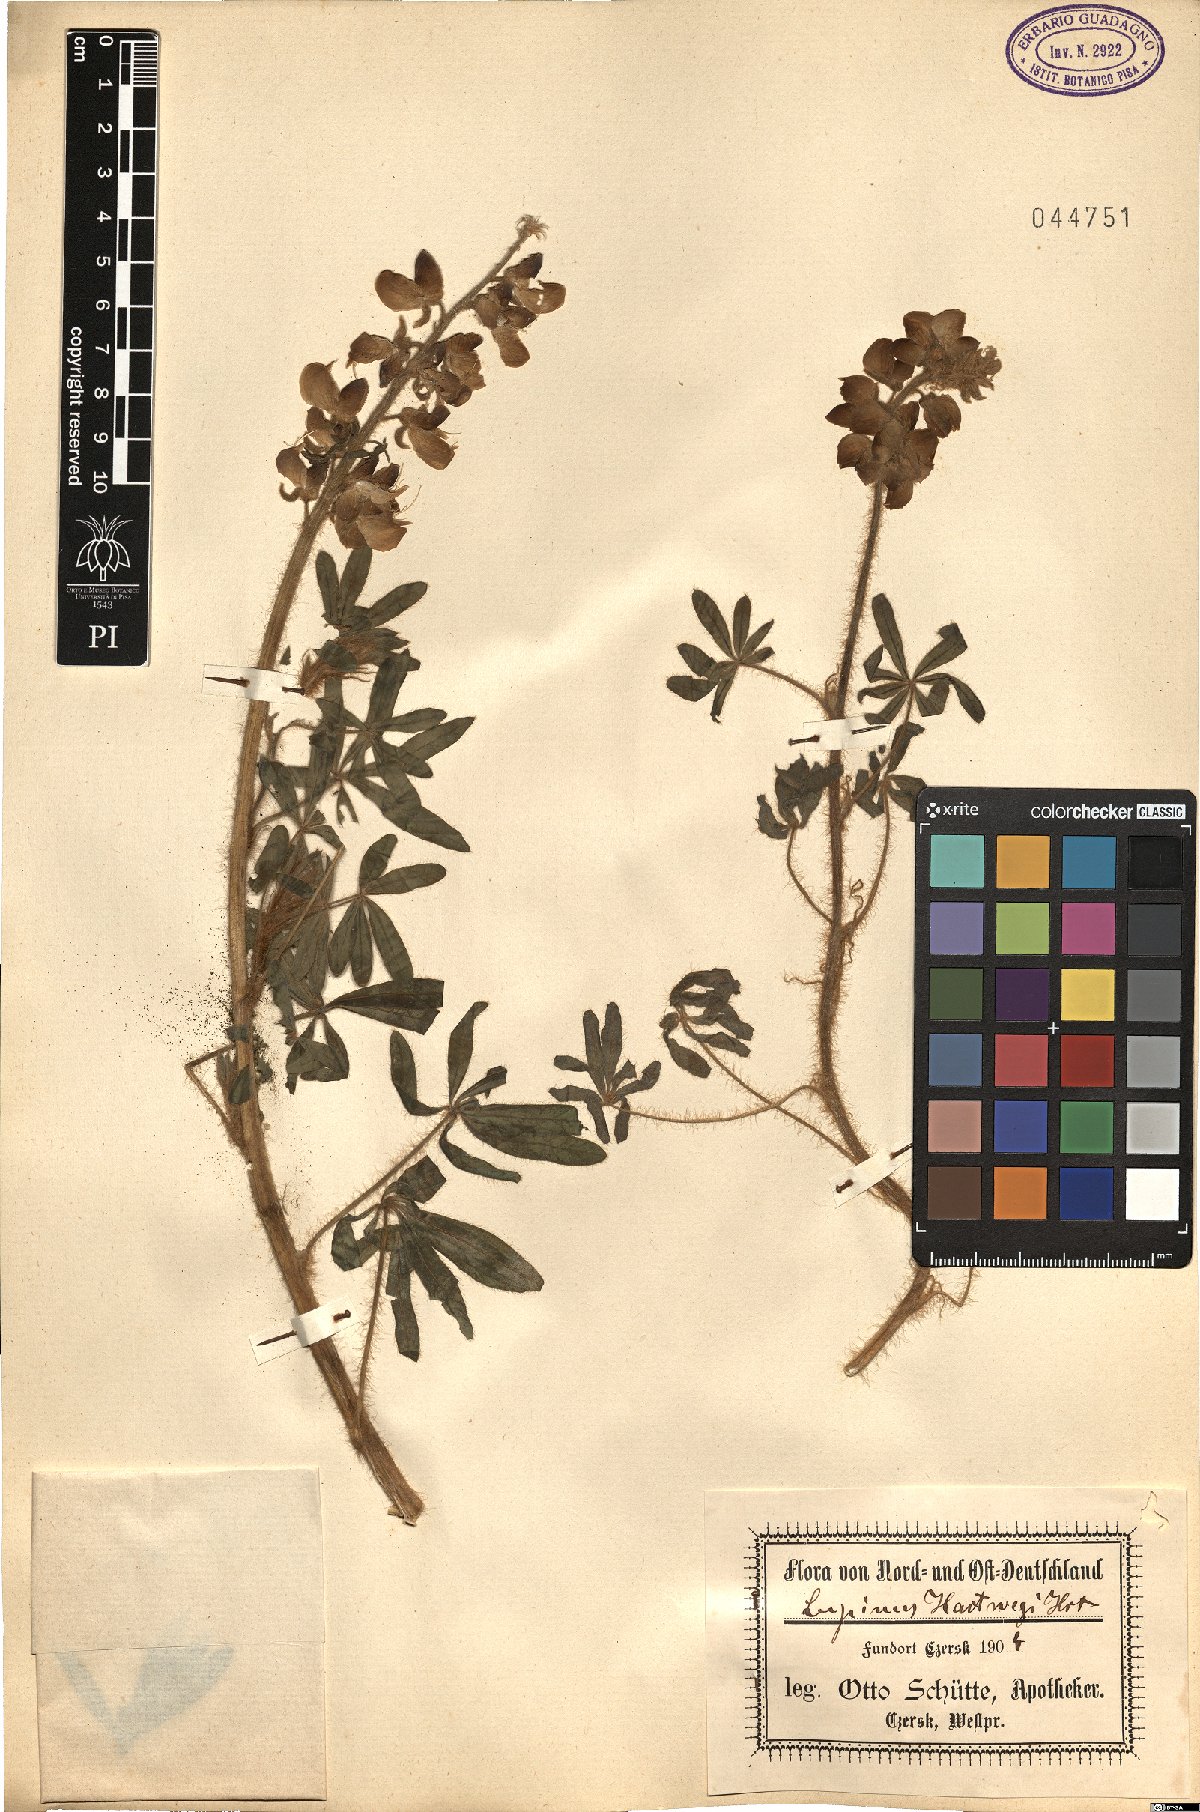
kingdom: Plantae
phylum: Tracheophyta
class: Magnoliopsida
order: Fabales
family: Fabaceae
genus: Lupinus
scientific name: Lupinus ehrenbergii
